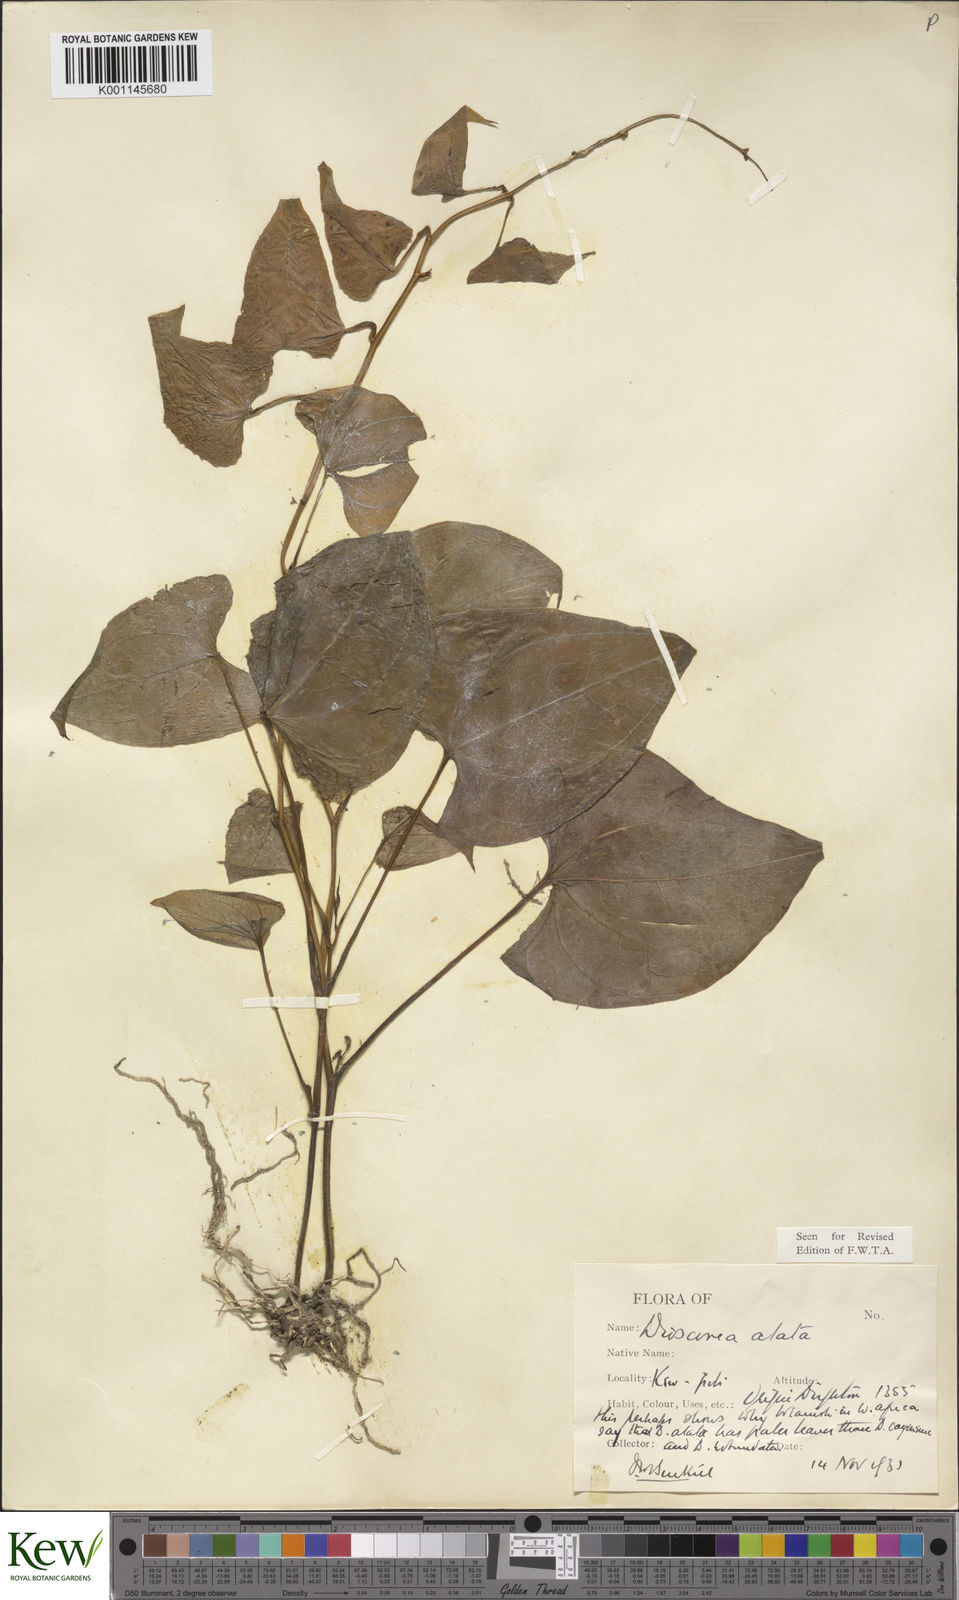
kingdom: Plantae
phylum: Tracheophyta
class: Liliopsida
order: Dioscoreales
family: Dioscoreaceae
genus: Dioscorea
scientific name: Dioscorea alata
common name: Water yam
